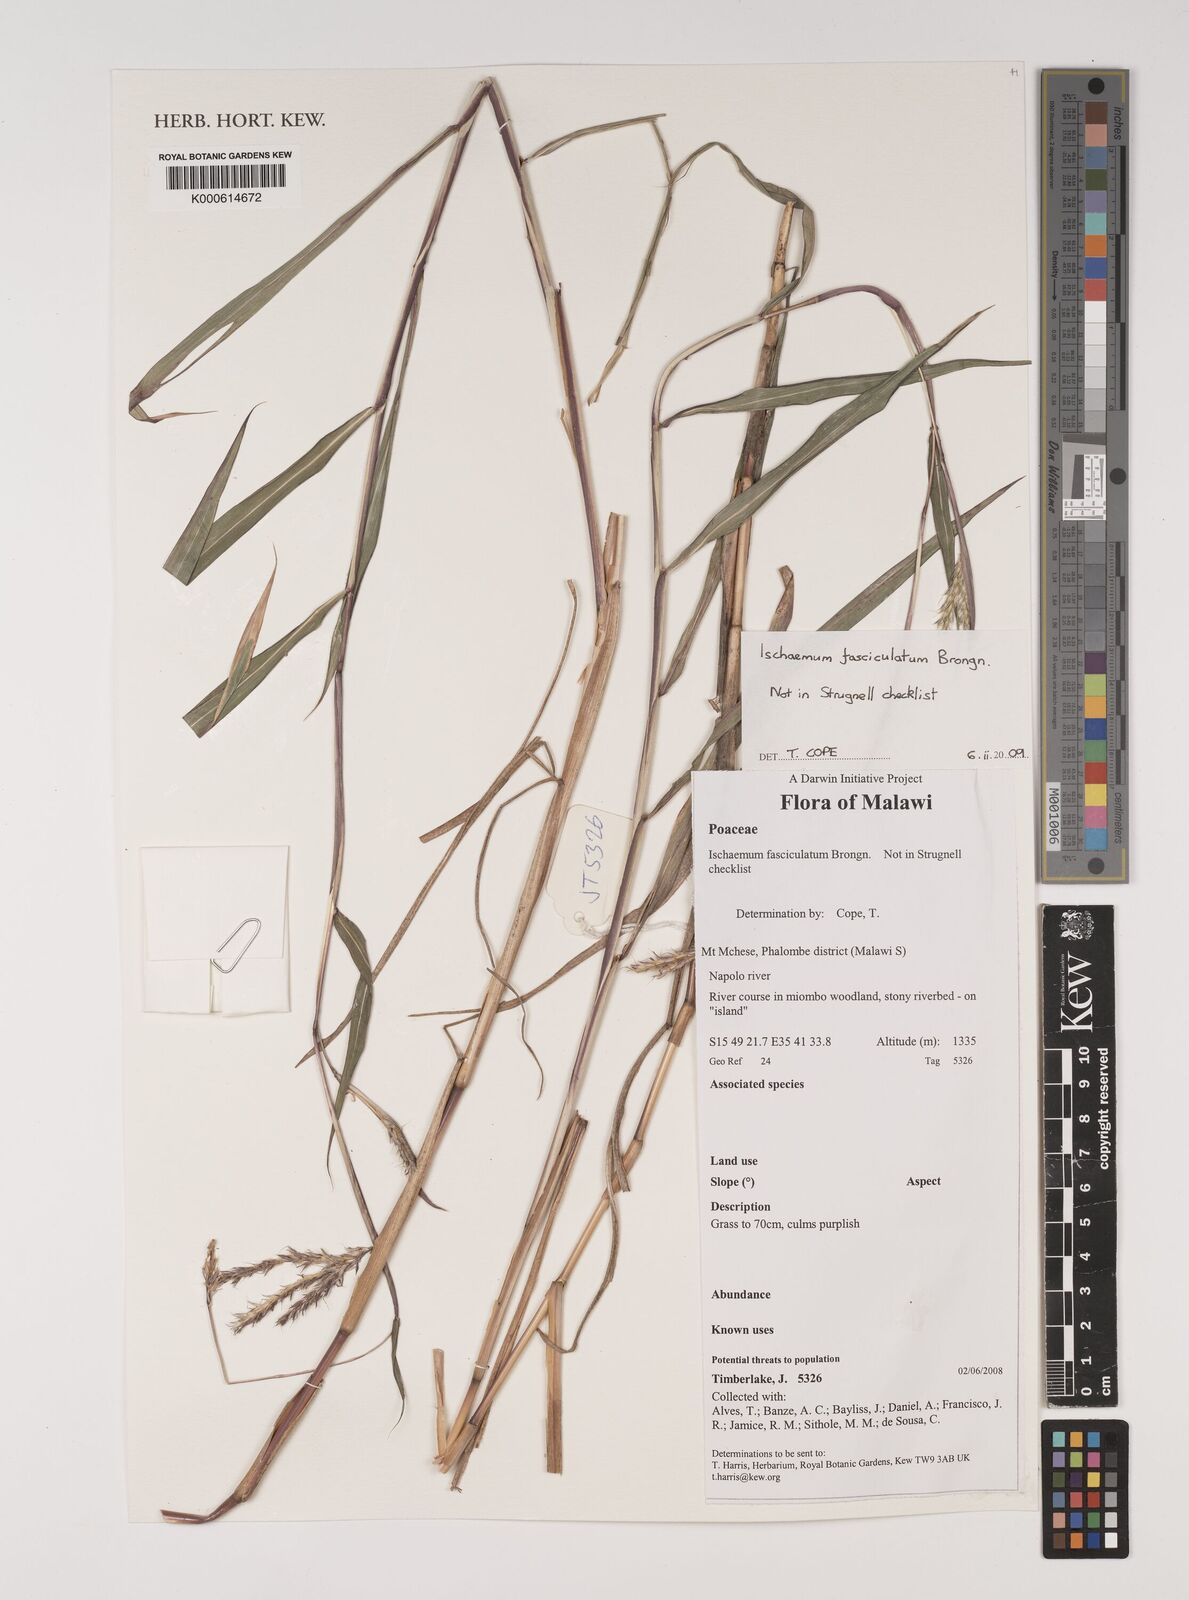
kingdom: Plantae
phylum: Tracheophyta
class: Liliopsida
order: Poales
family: Poaceae
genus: Ischaemum
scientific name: Ischaemum polystachyum
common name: Paddle grass
